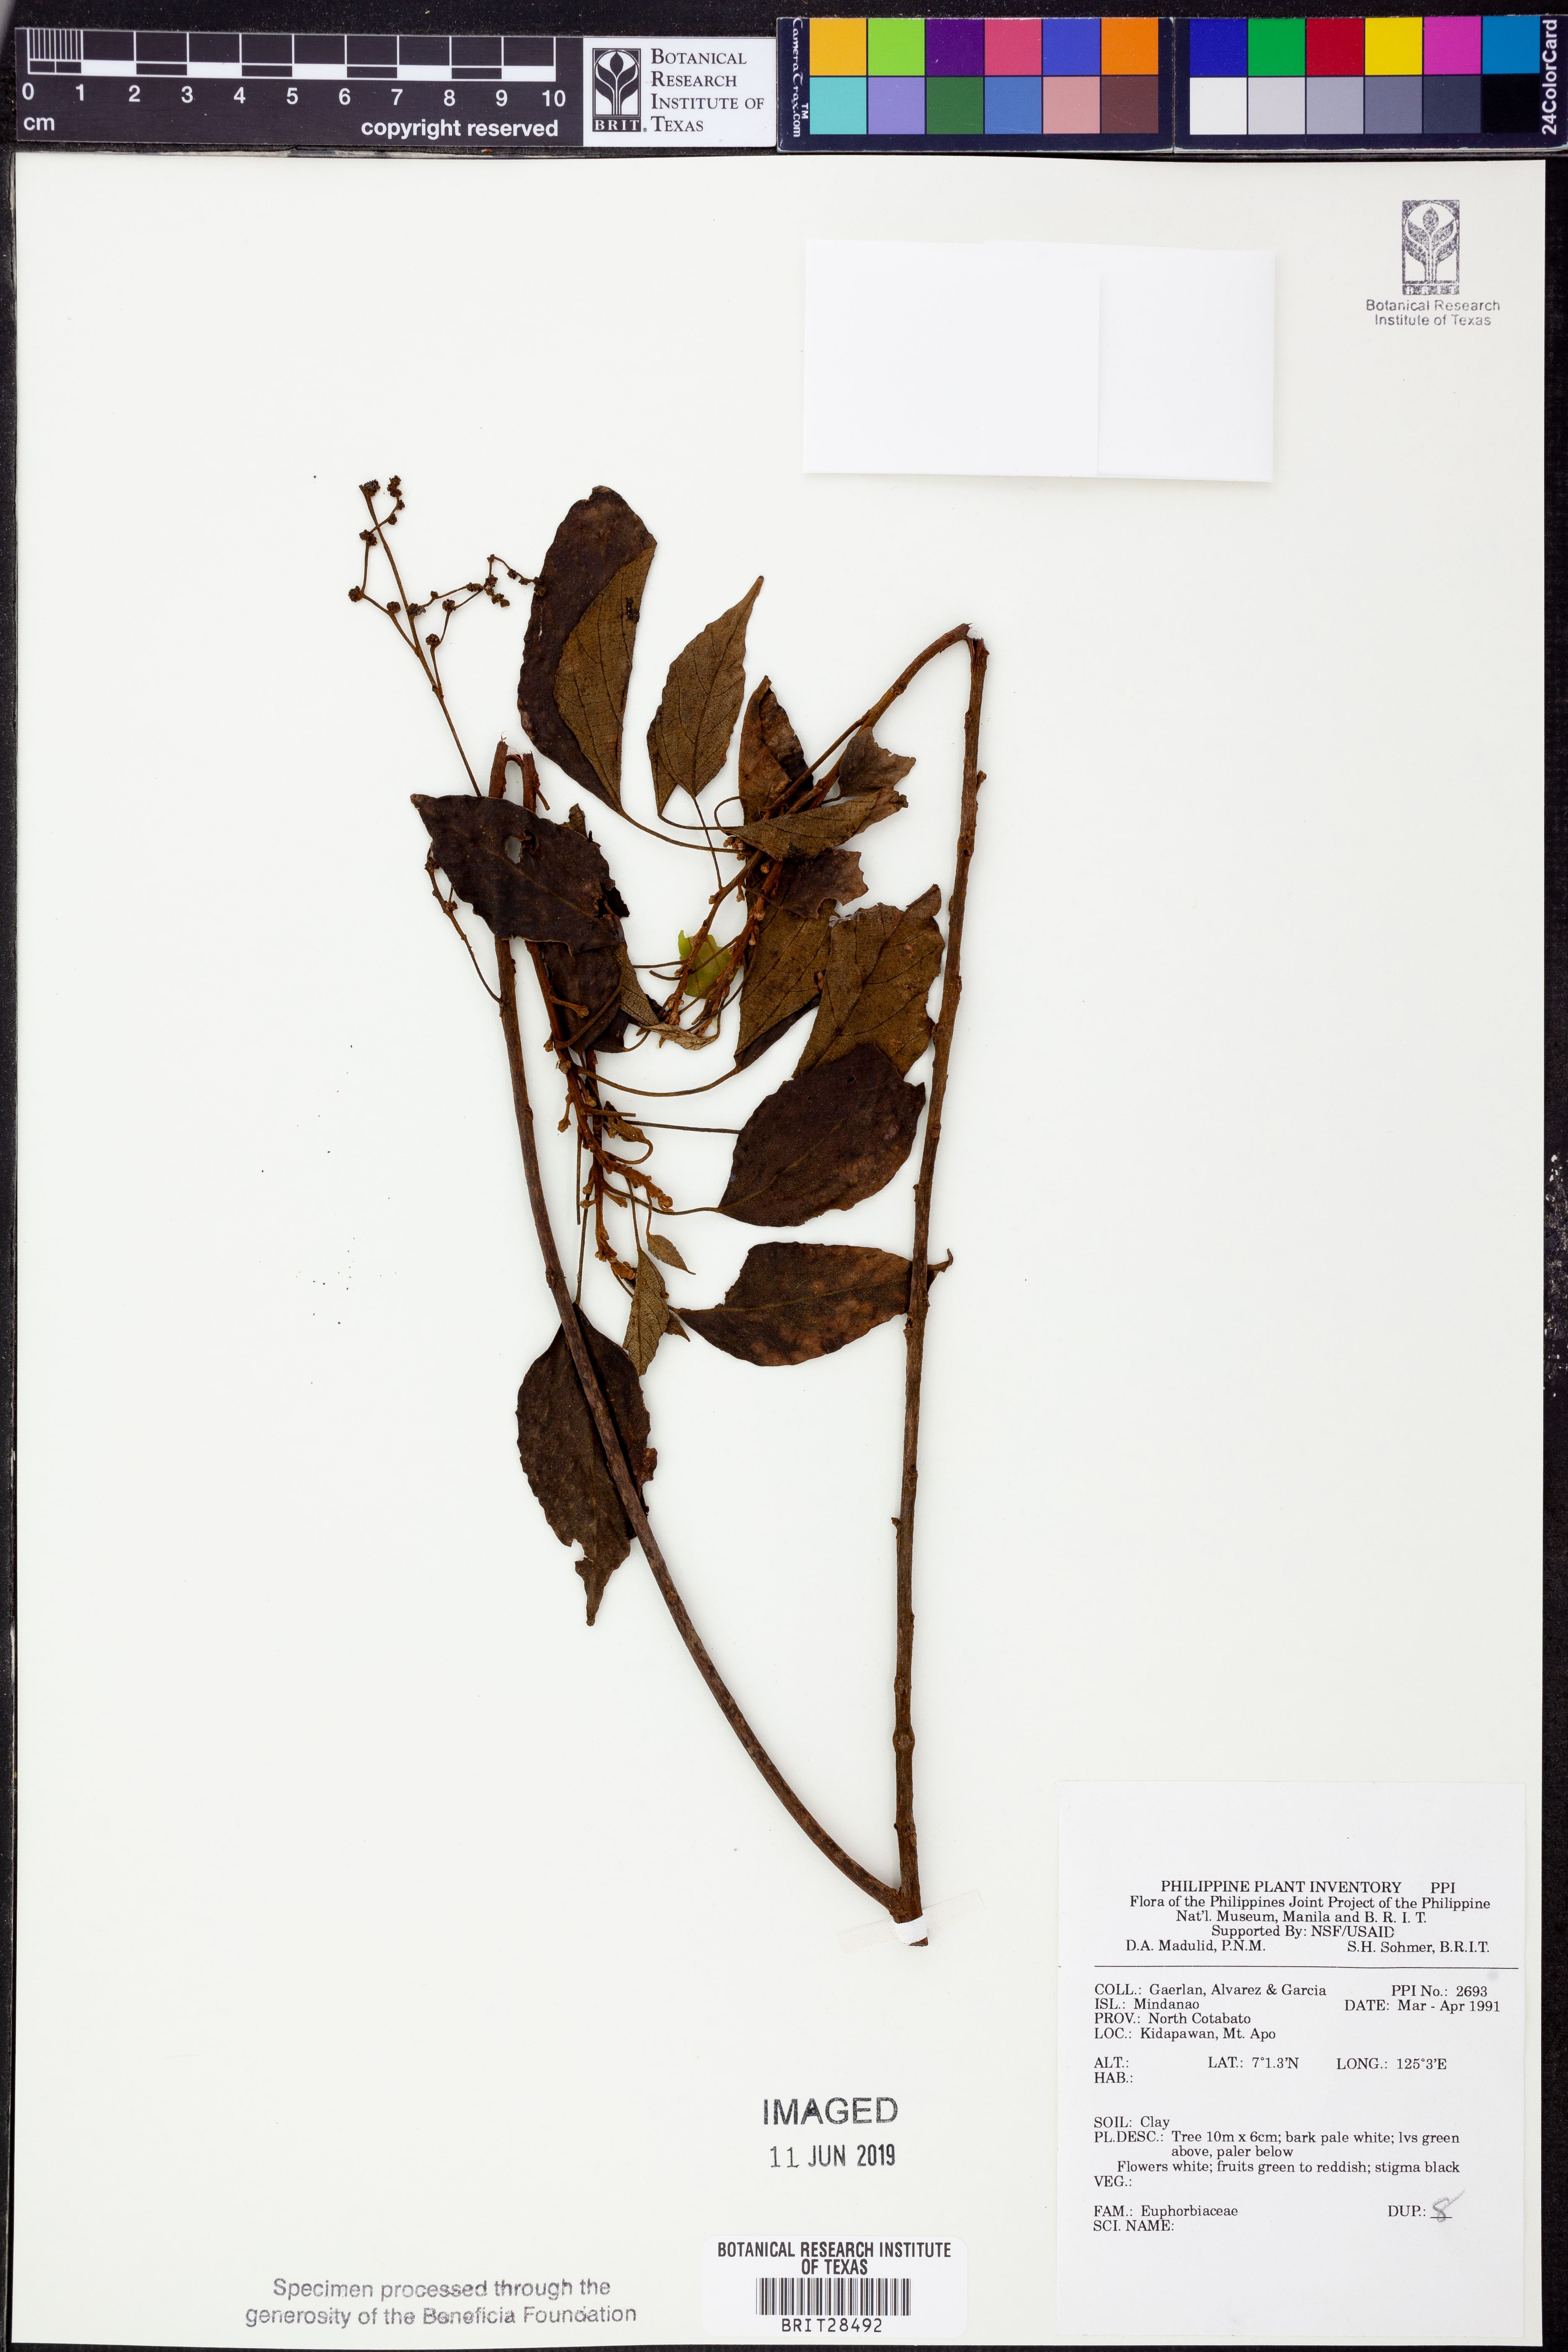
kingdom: Plantae
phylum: Tracheophyta
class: Magnoliopsida
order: Malpighiales
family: Euphorbiaceae
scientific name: Euphorbiaceae
